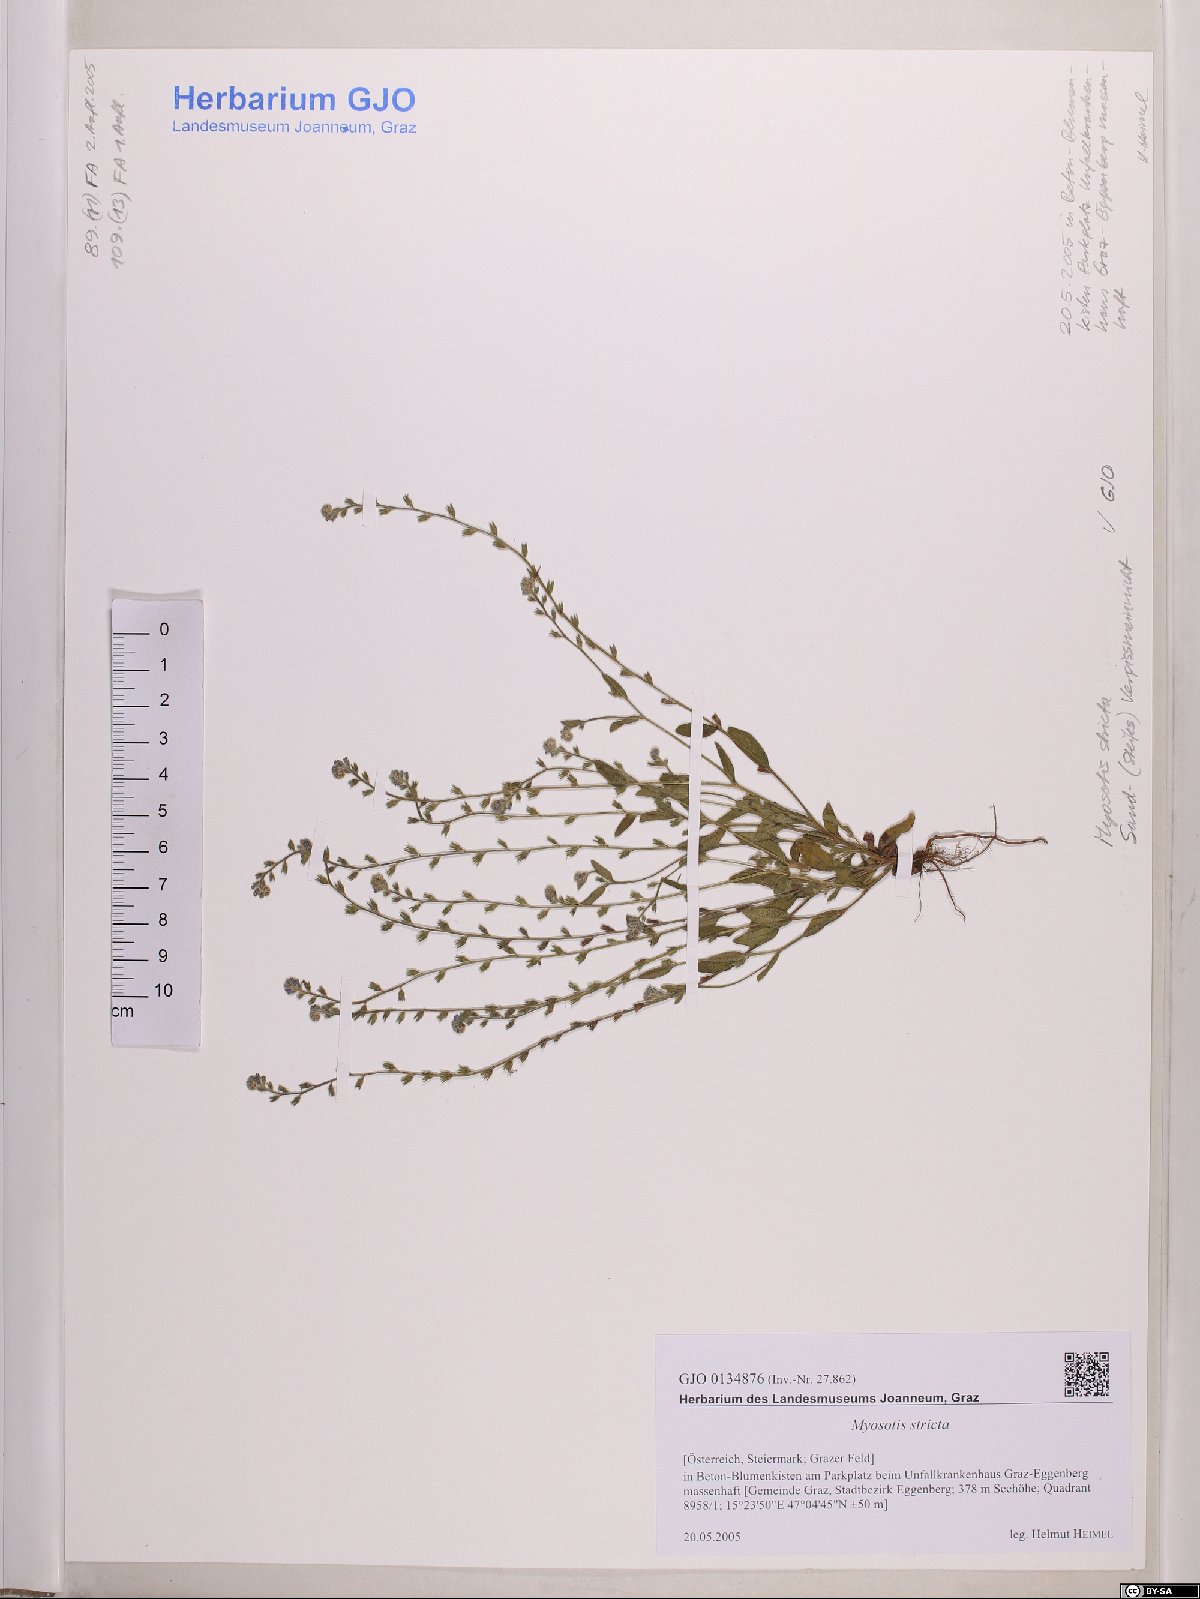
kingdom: Plantae
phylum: Tracheophyta
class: Magnoliopsida
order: Boraginales
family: Boraginaceae
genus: Myosotis
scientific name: Myosotis stricta
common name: Strict forget-me-not
